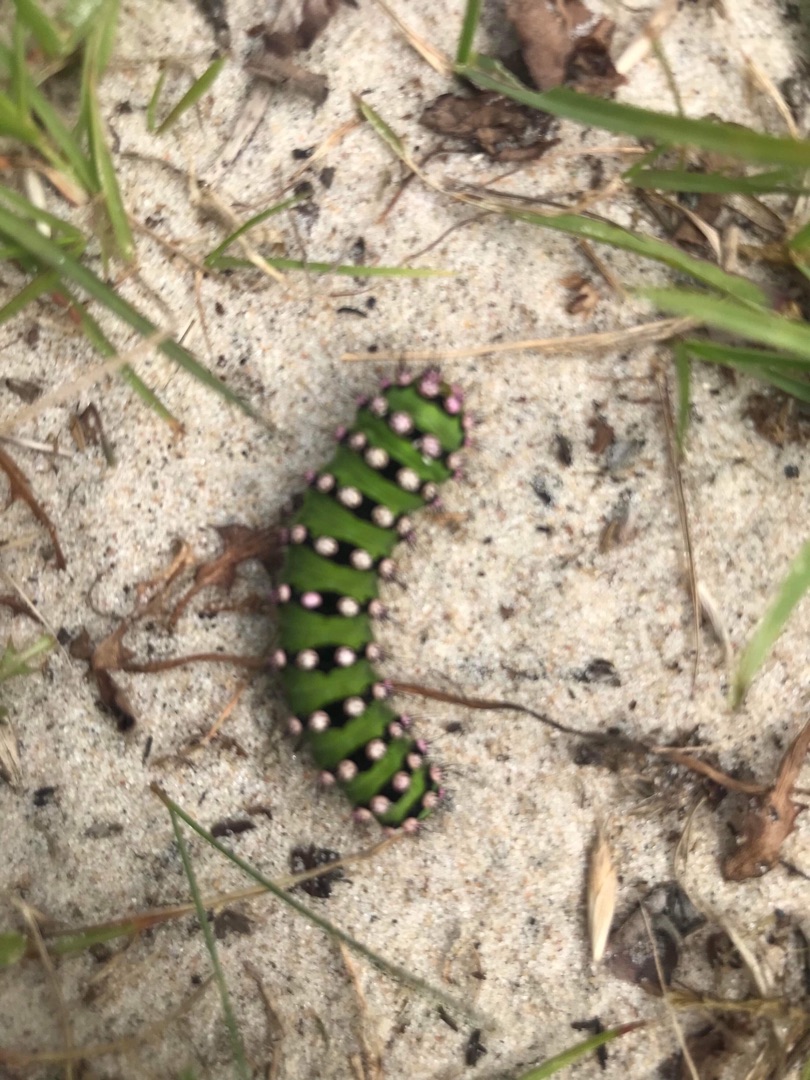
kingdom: Animalia
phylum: Arthropoda
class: Insecta
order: Lepidoptera
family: Saturniidae
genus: Saturnia
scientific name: Saturnia pavonia
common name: Lille natpåfugleøje
